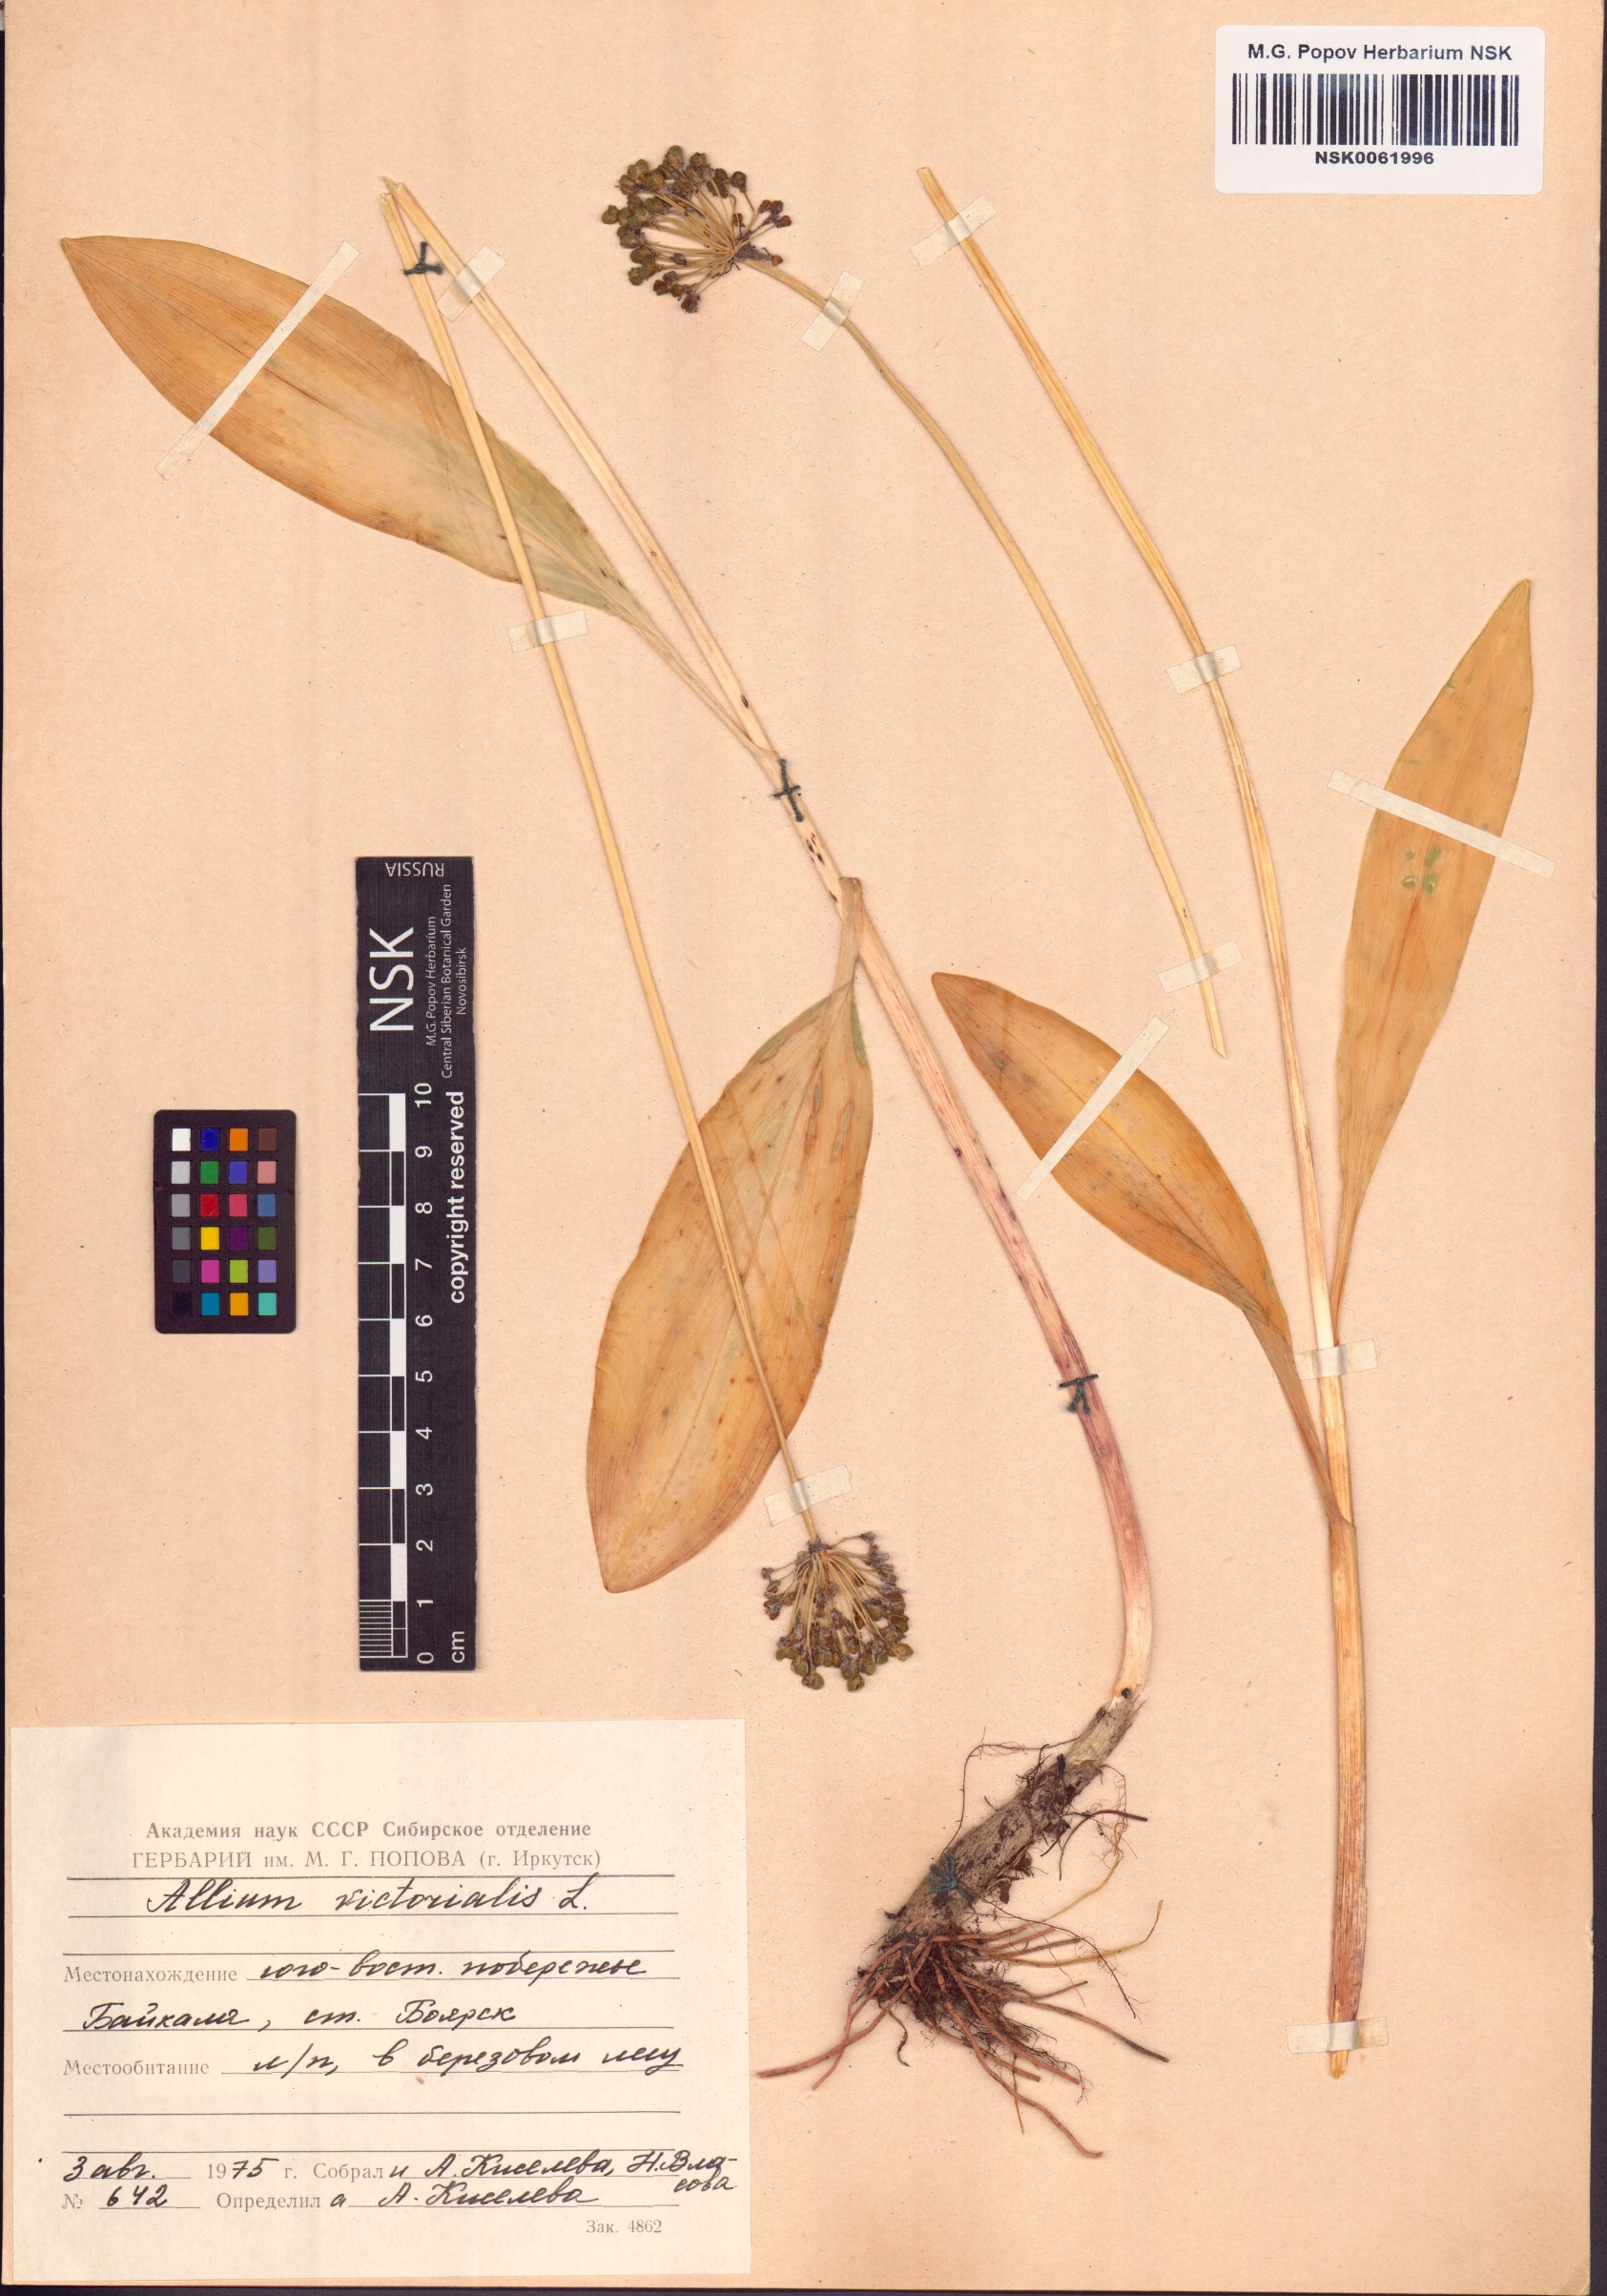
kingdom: Plantae
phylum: Tracheophyta
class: Liliopsida
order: Asparagales
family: Amaryllidaceae
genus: Allium
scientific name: Allium victorialis
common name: Alpine leek
